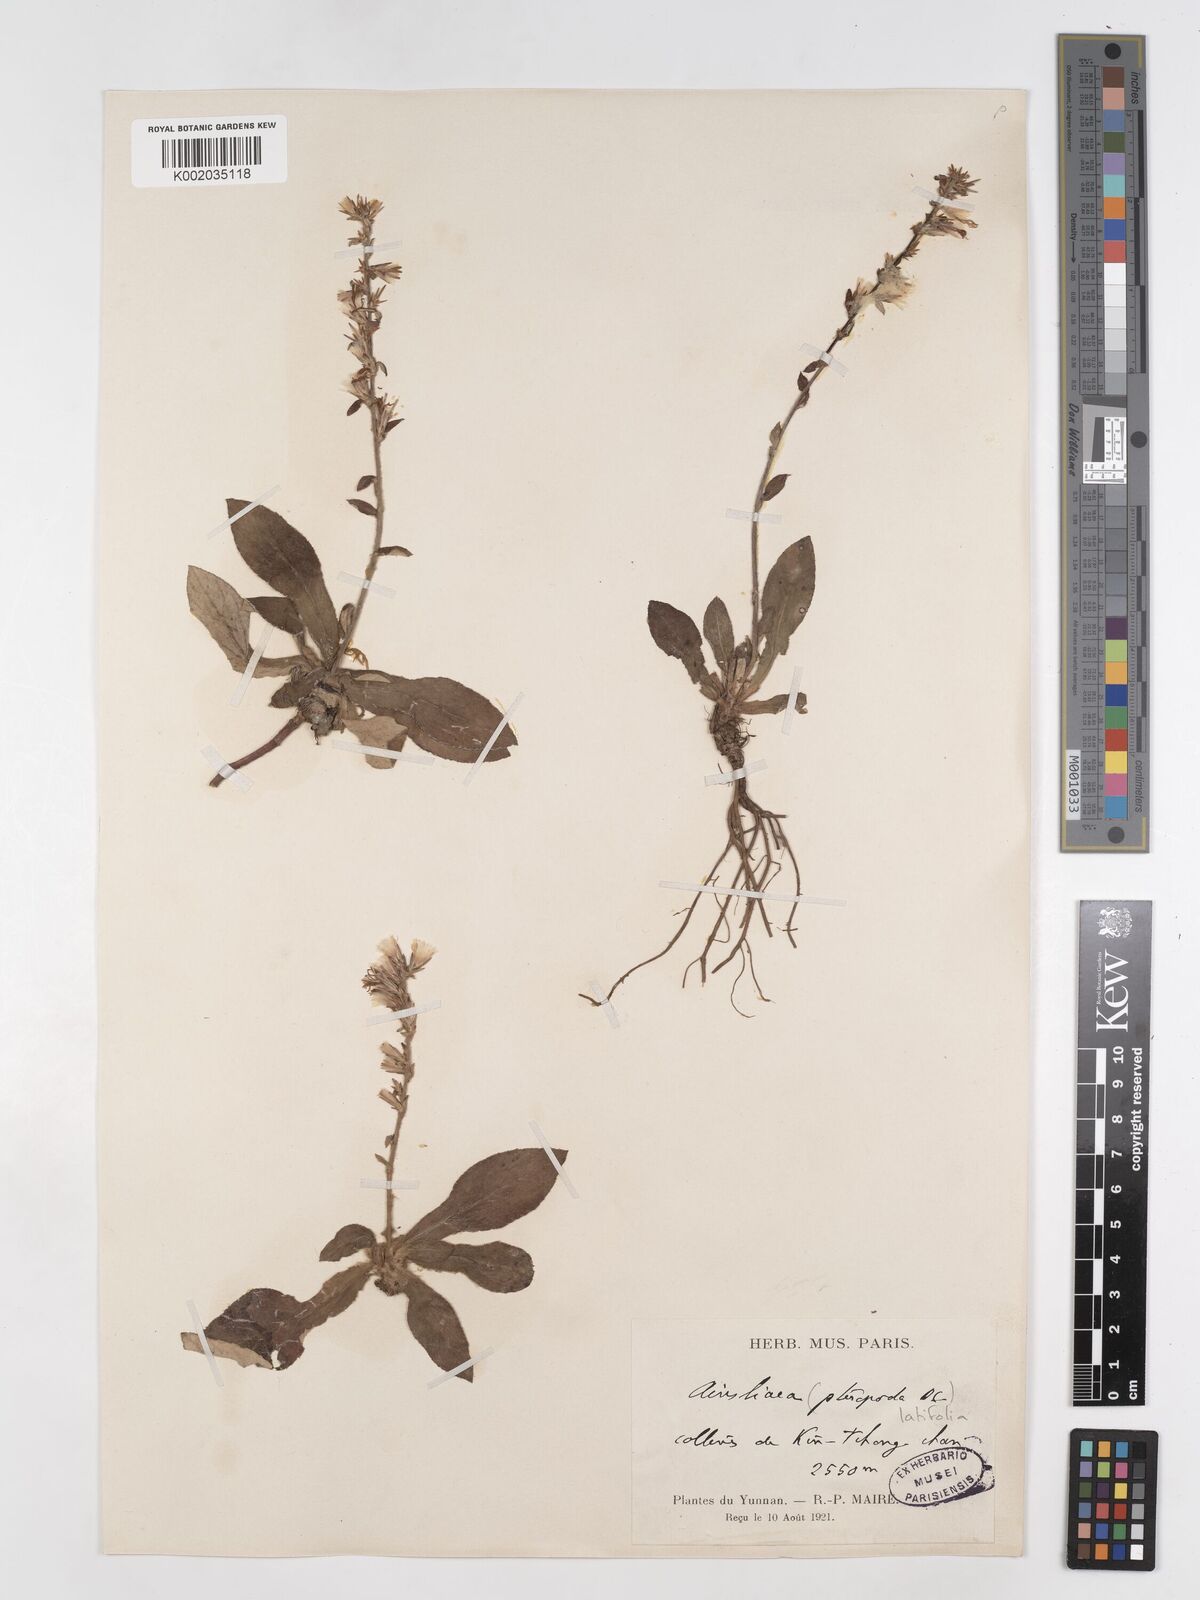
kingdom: Plantae
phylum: Tracheophyta
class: Magnoliopsida
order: Asterales
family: Asteraceae
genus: Ainsliaea
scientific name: Ainsliaea latifolia
